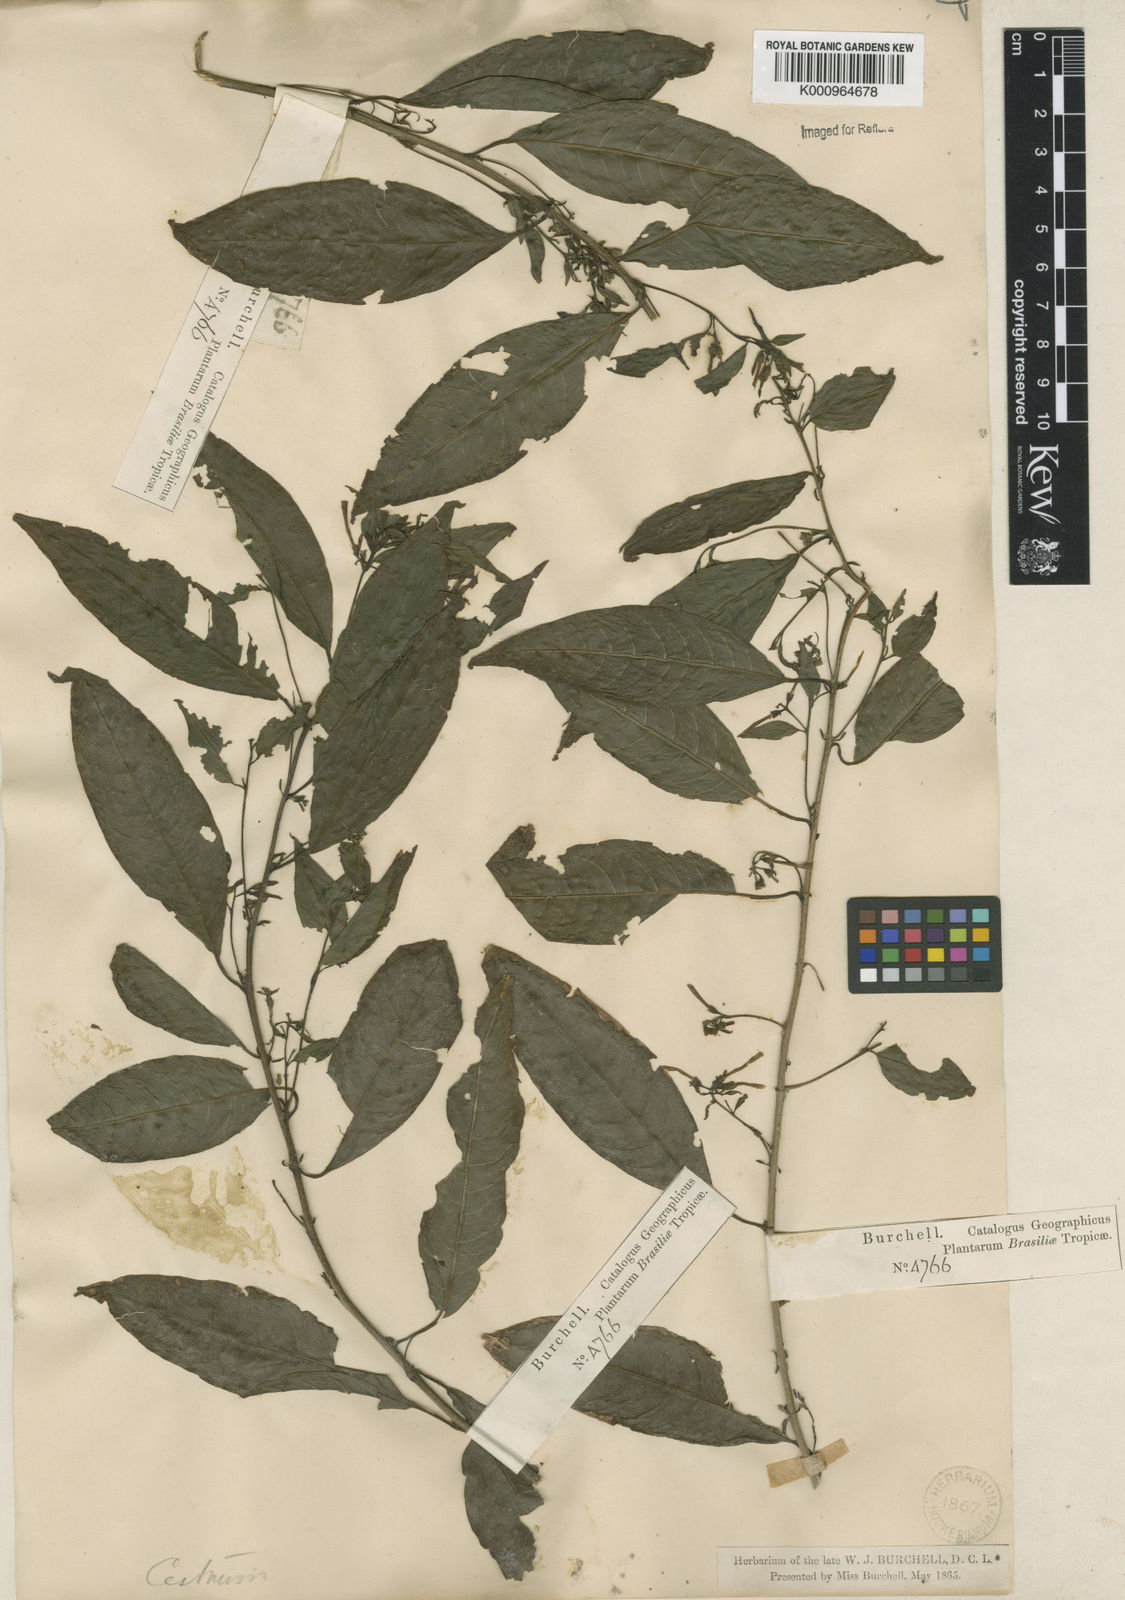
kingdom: Plantae
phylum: Tracheophyta
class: Magnoliopsida
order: Solanales
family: Solanaceae
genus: Cestrum
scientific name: Cestrum
